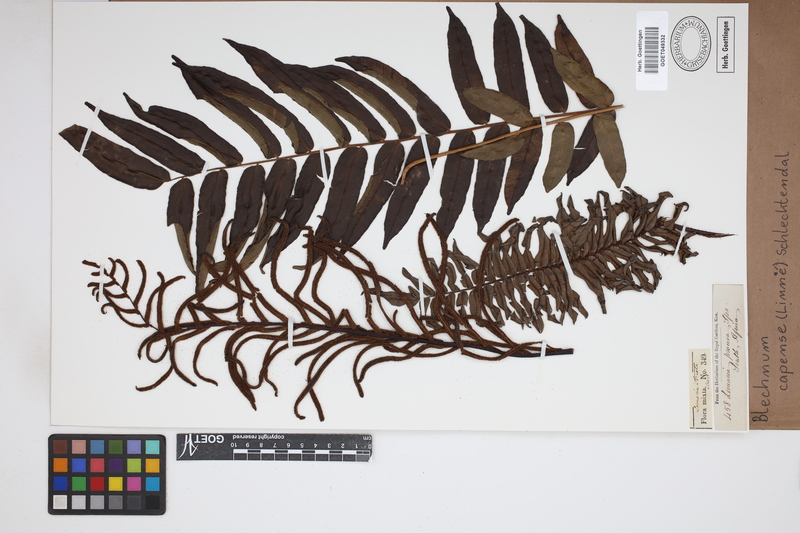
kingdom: Plantae
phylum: Tracheophyta
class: Polypodiopsida
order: Polypodiales
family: Blechnaceae
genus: Parablechnum
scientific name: Parablechnum capense
